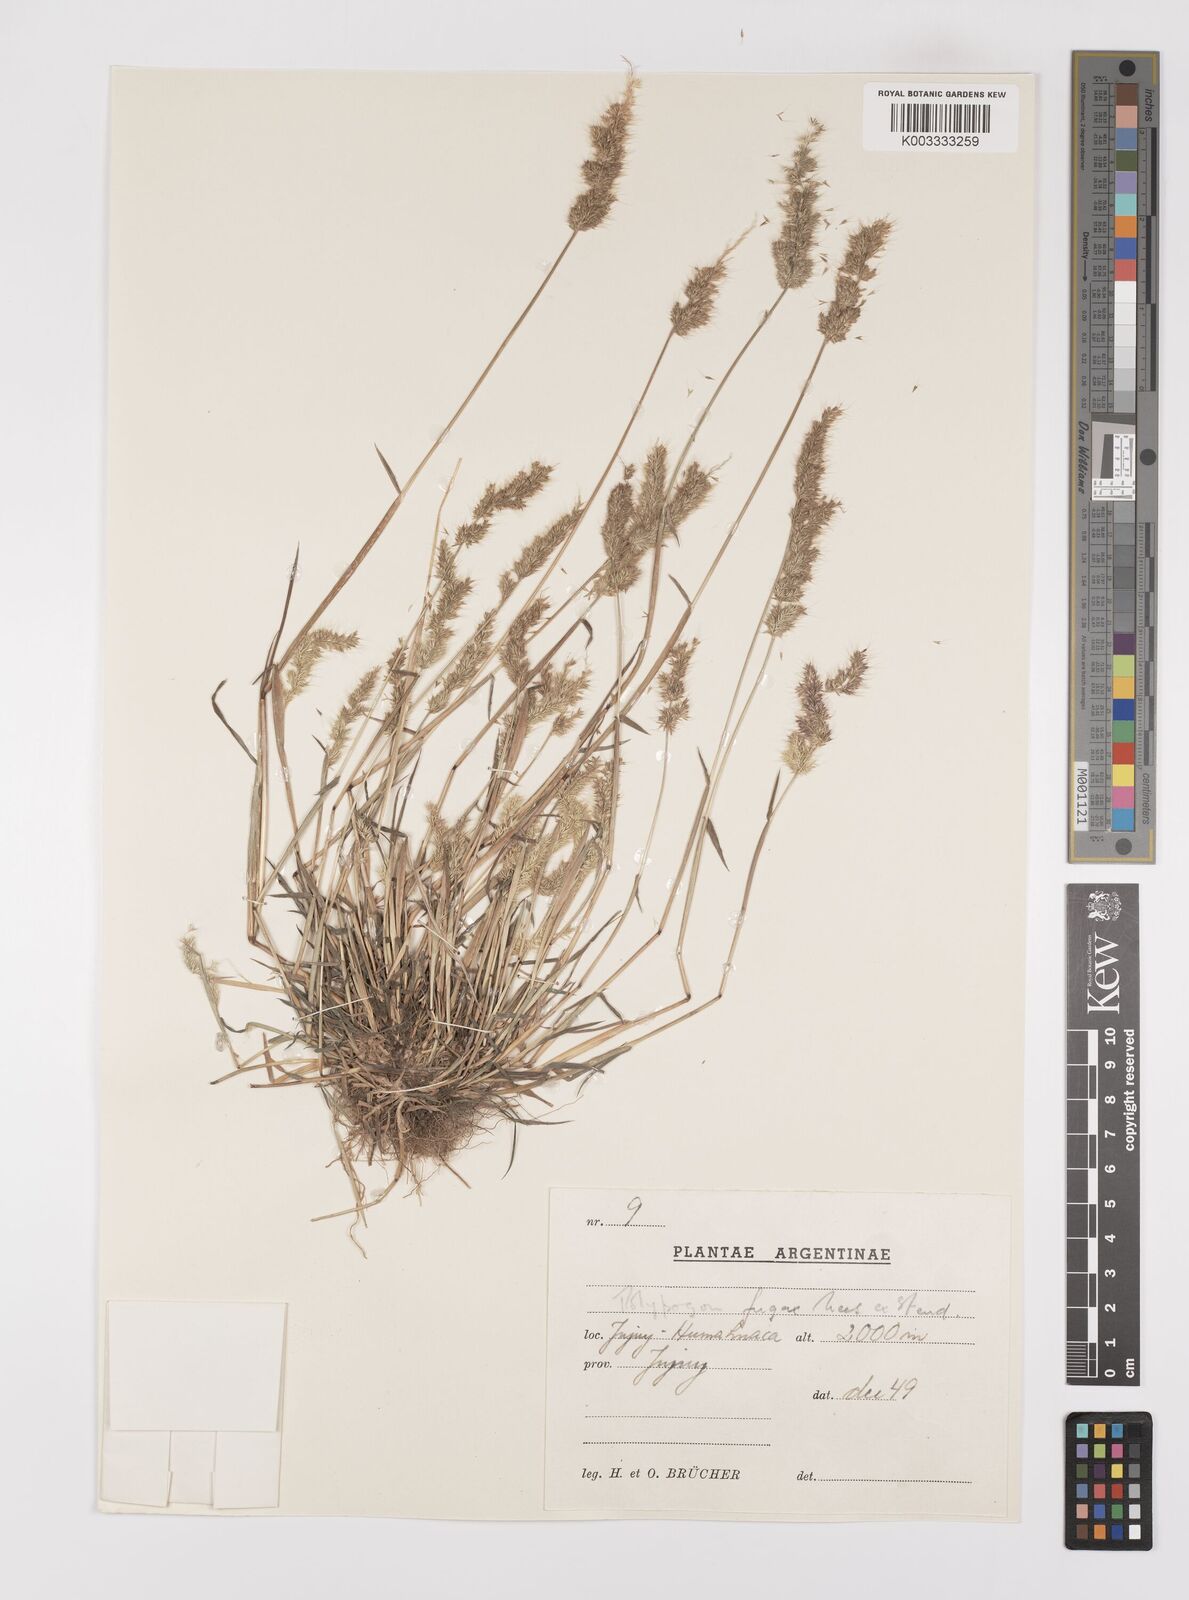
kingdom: Plantae
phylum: Tracheophyta
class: Liliopsida
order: Poales
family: Poaceae
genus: Polypogon
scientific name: Polypogon interruptus
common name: Ditch polypogon
